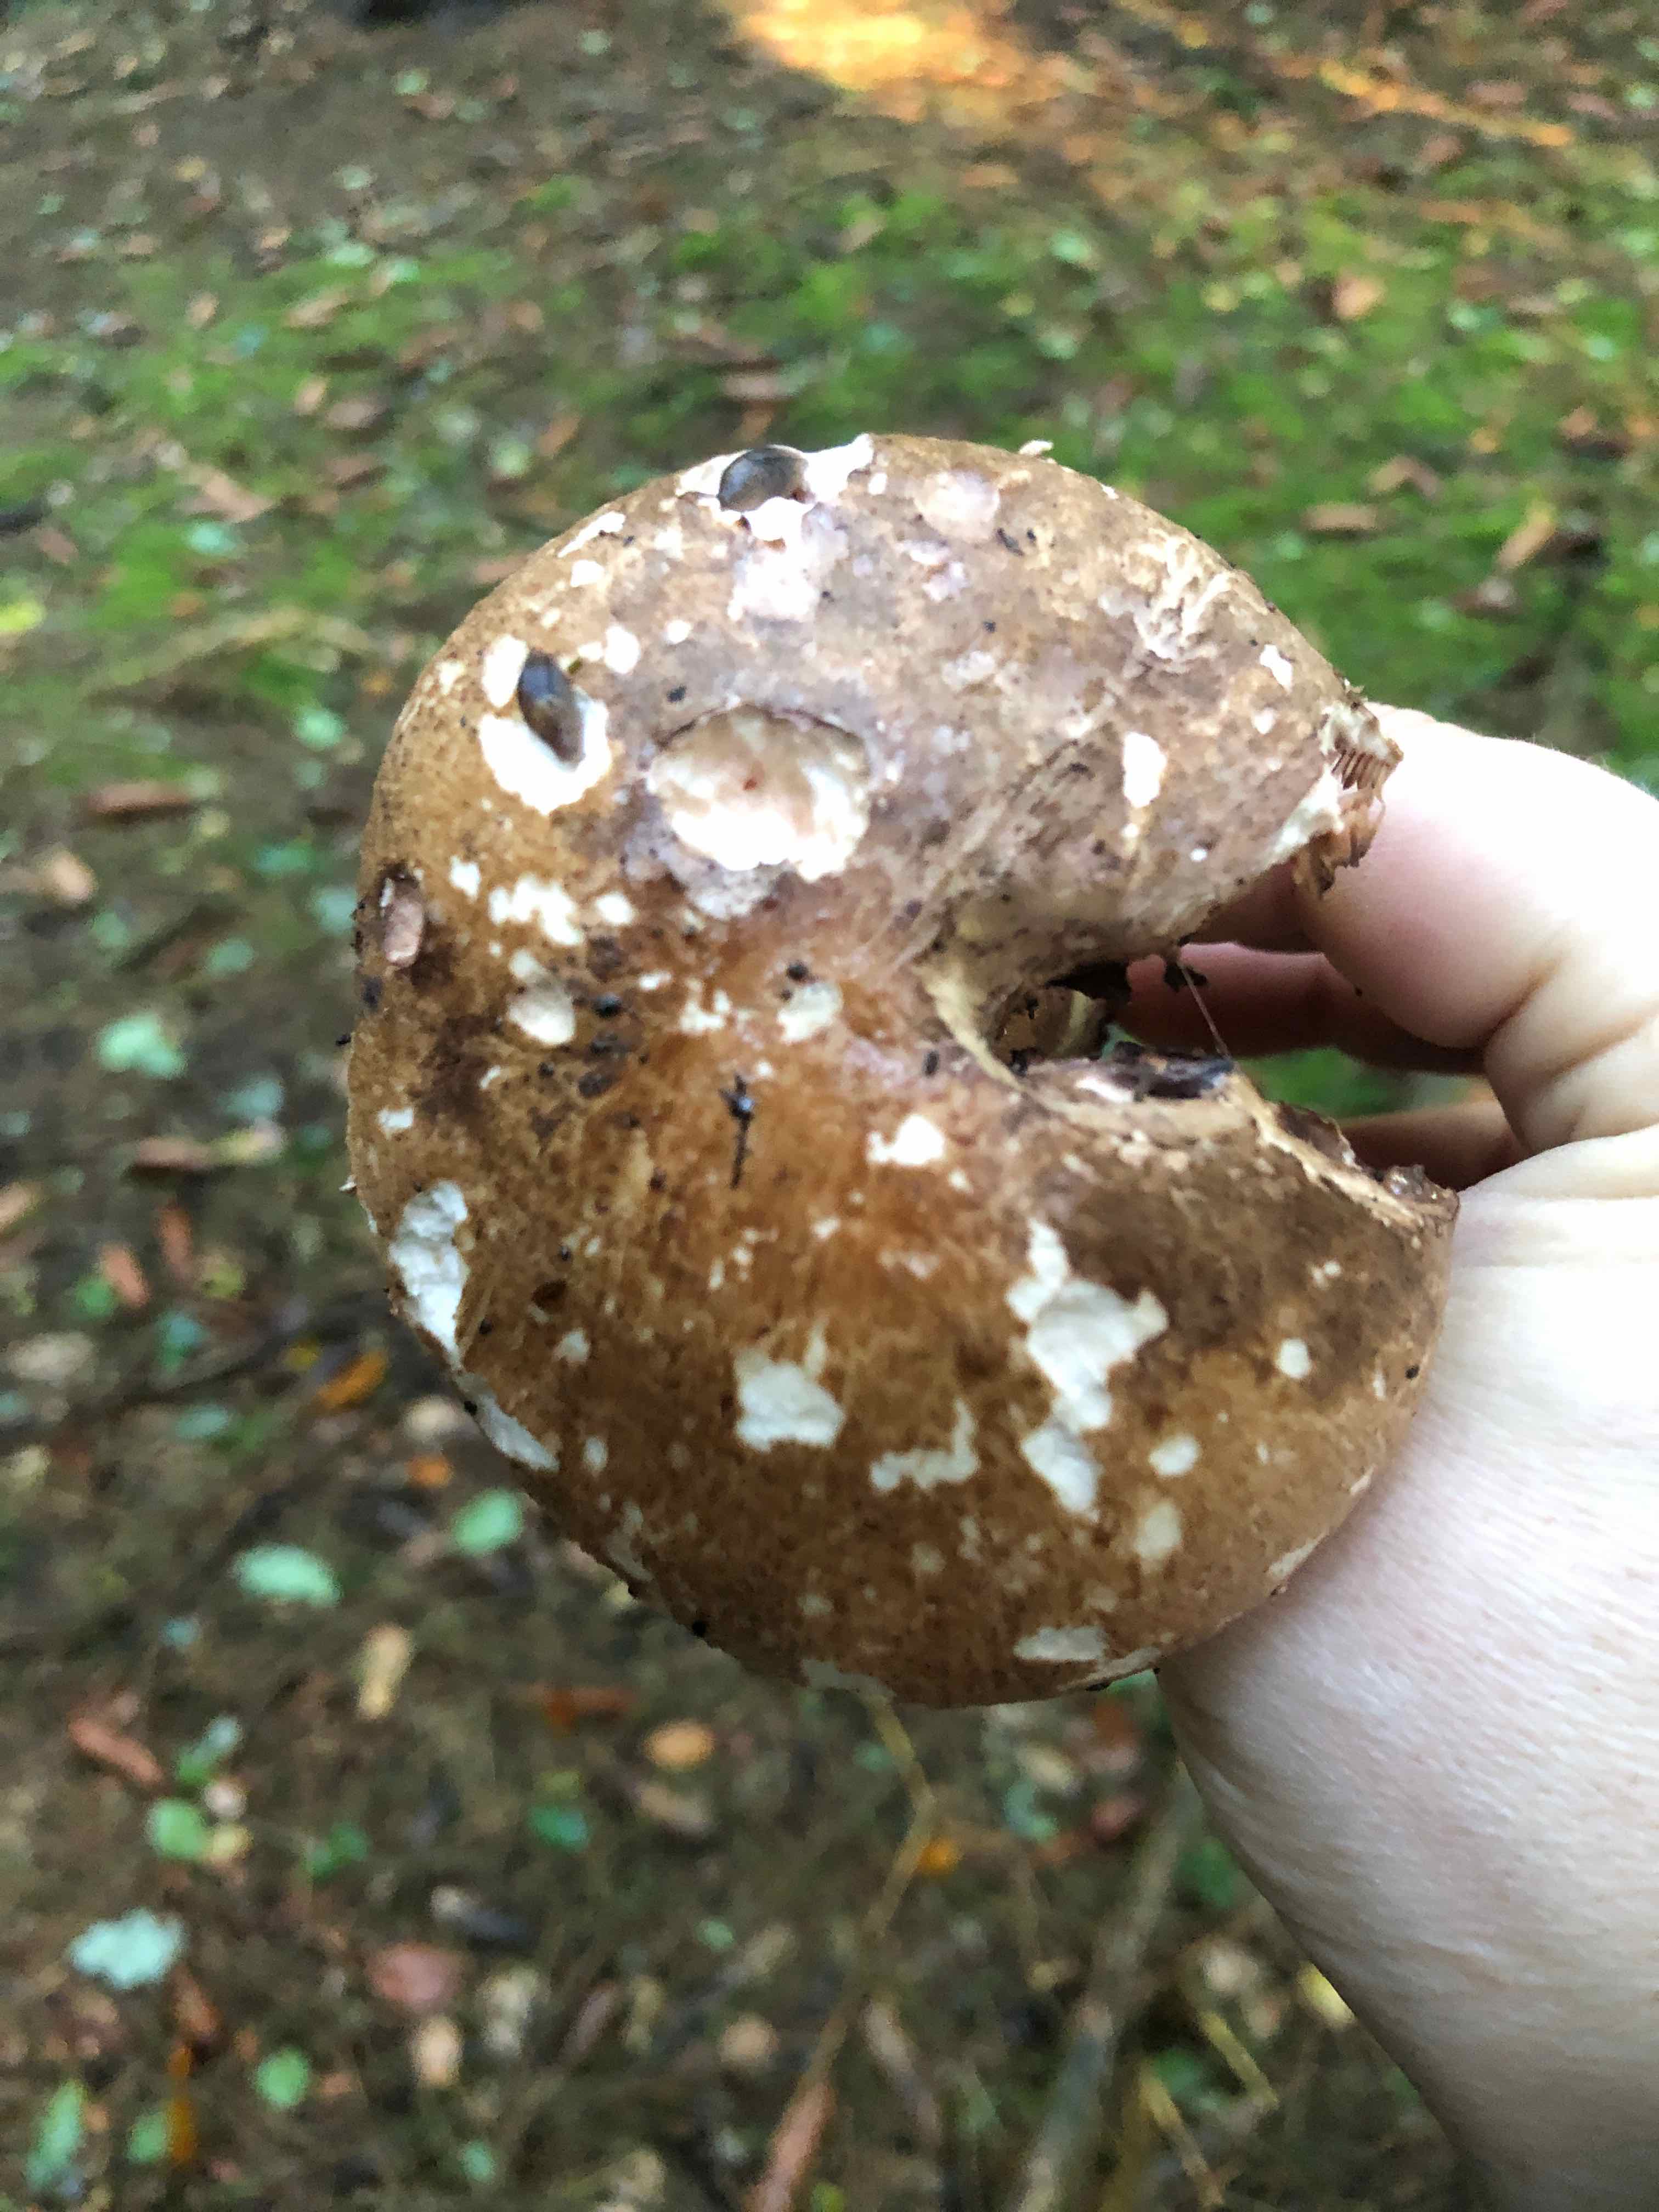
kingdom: Fungi
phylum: Basidiomycota
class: Agaricomycetes
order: Agaricales
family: Agaricaceae
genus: Agaricus
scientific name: Agaricus
